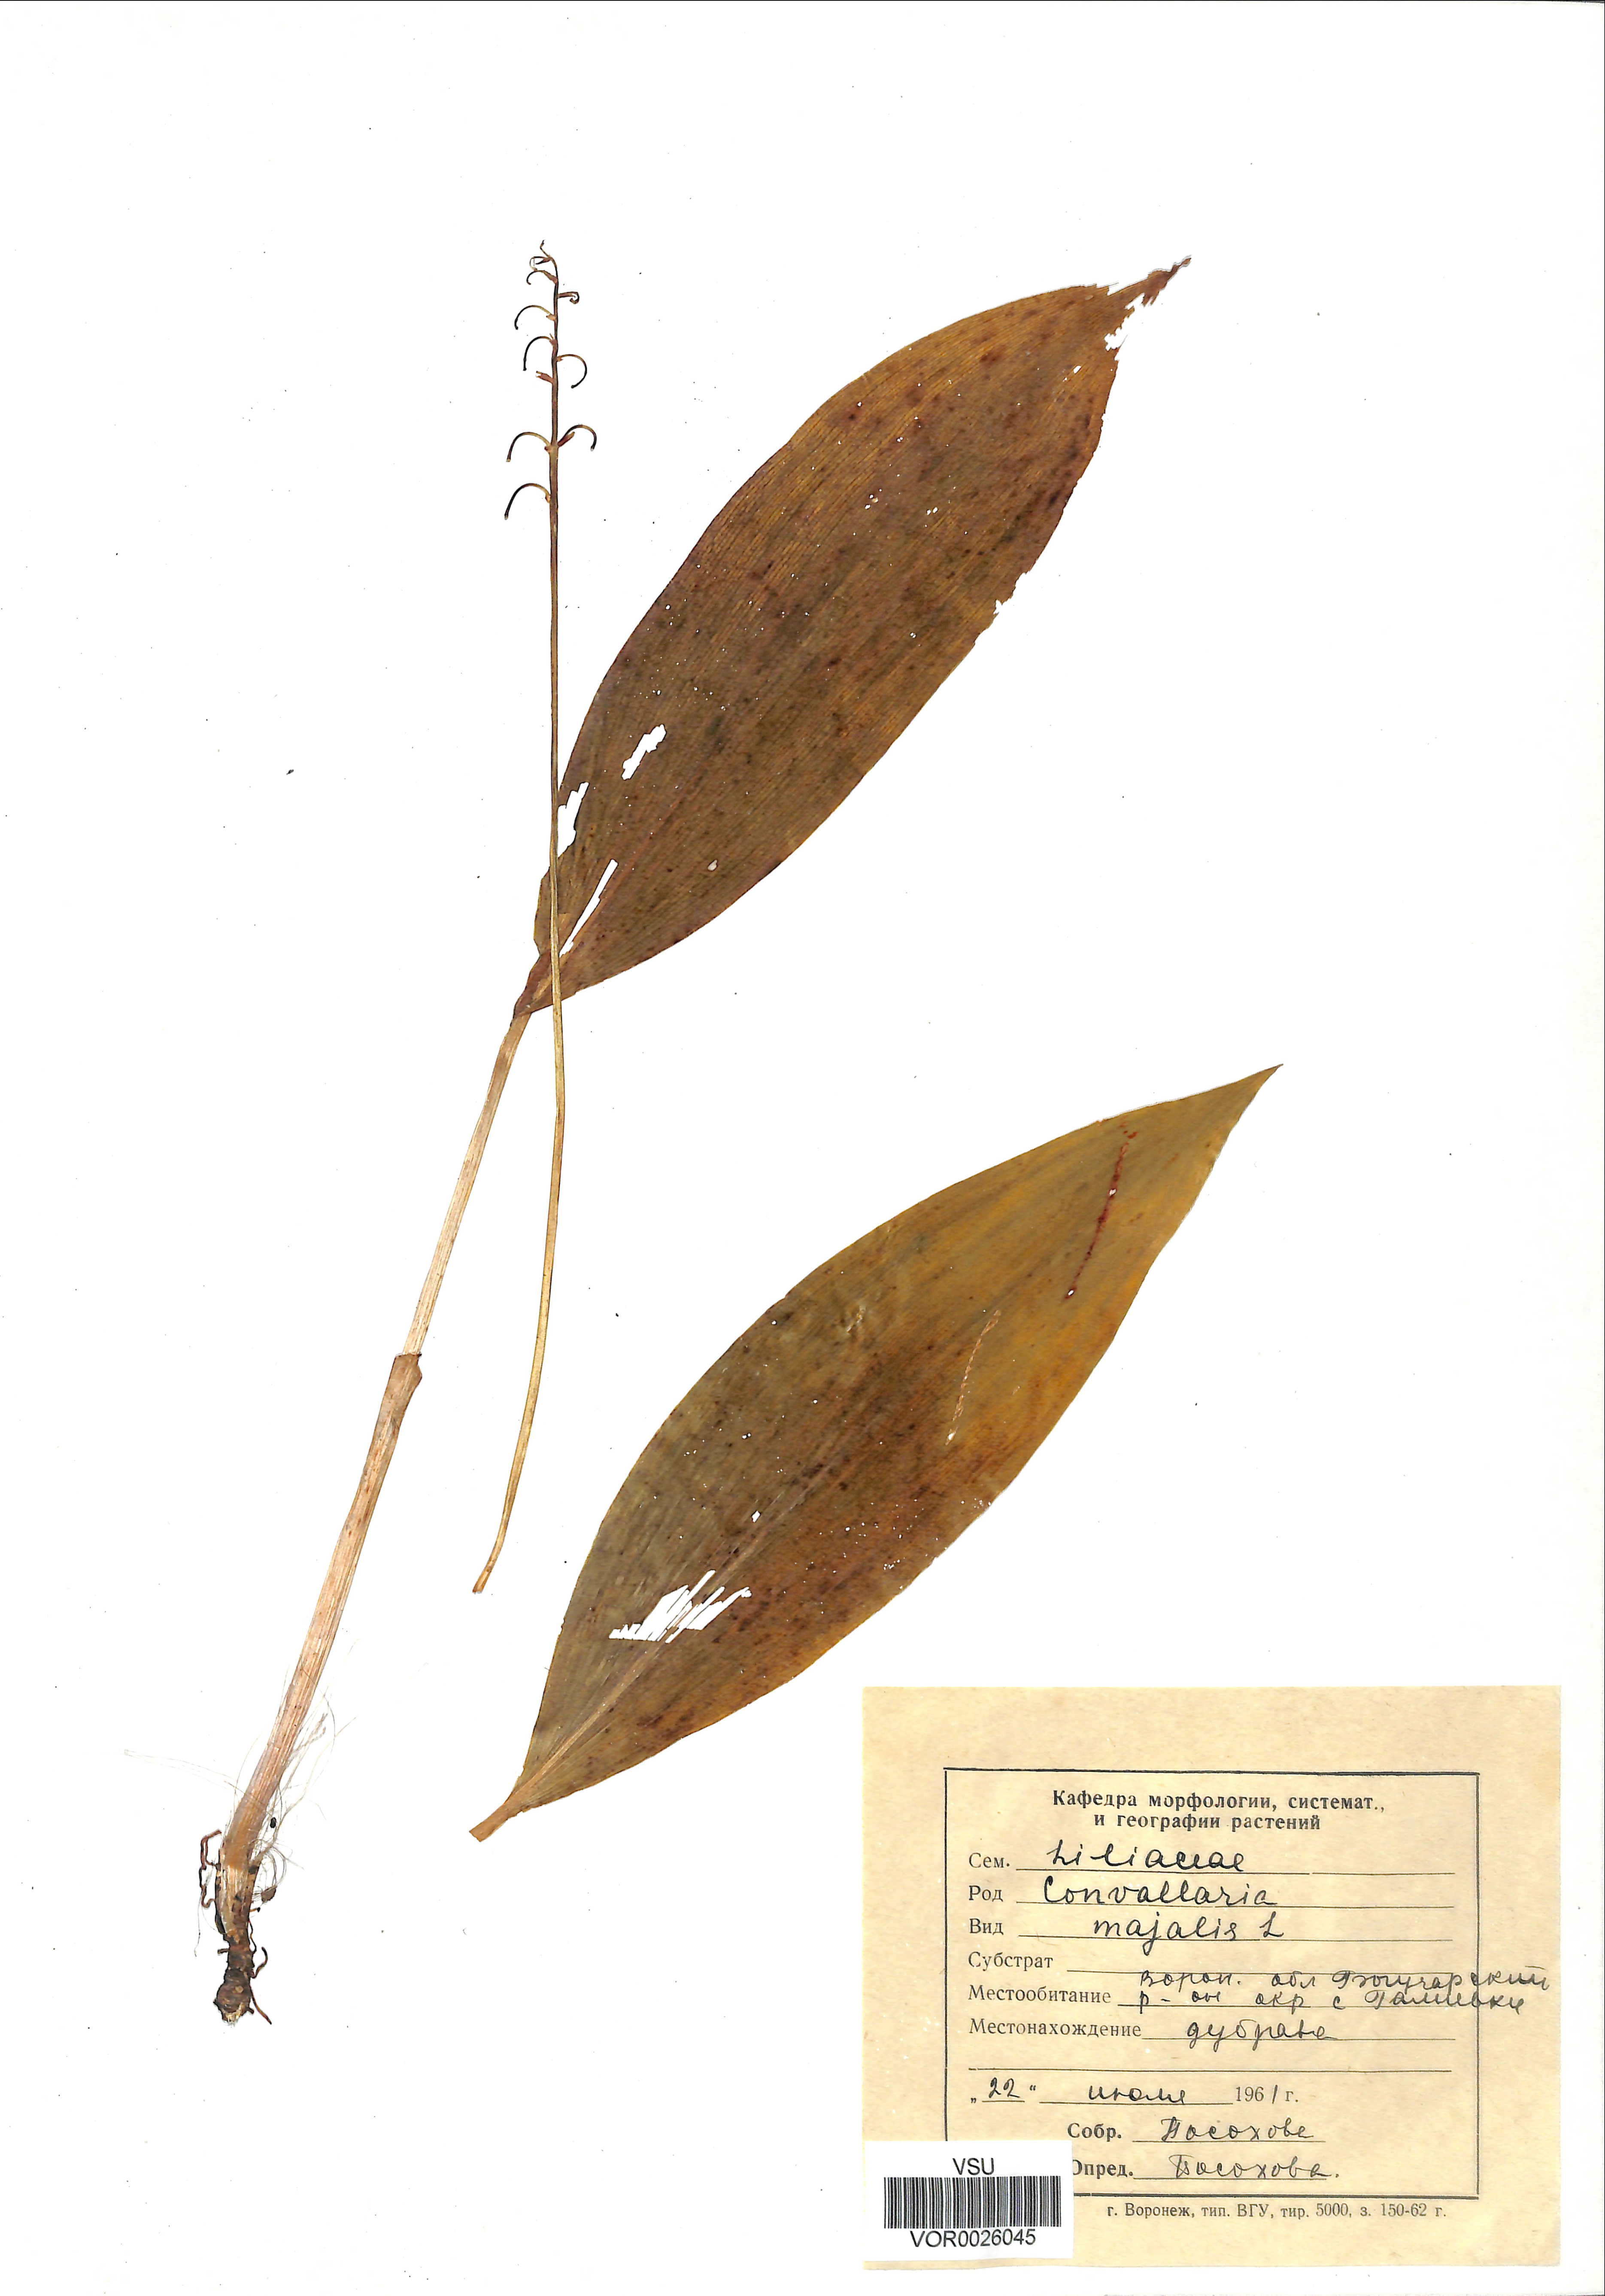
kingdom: Plantae
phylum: Tracheophyta
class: Liliopsida
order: Asparagales
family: Asparagaceae
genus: Convallaria
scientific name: Convallaria majalis
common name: Lily-of-the-valley
